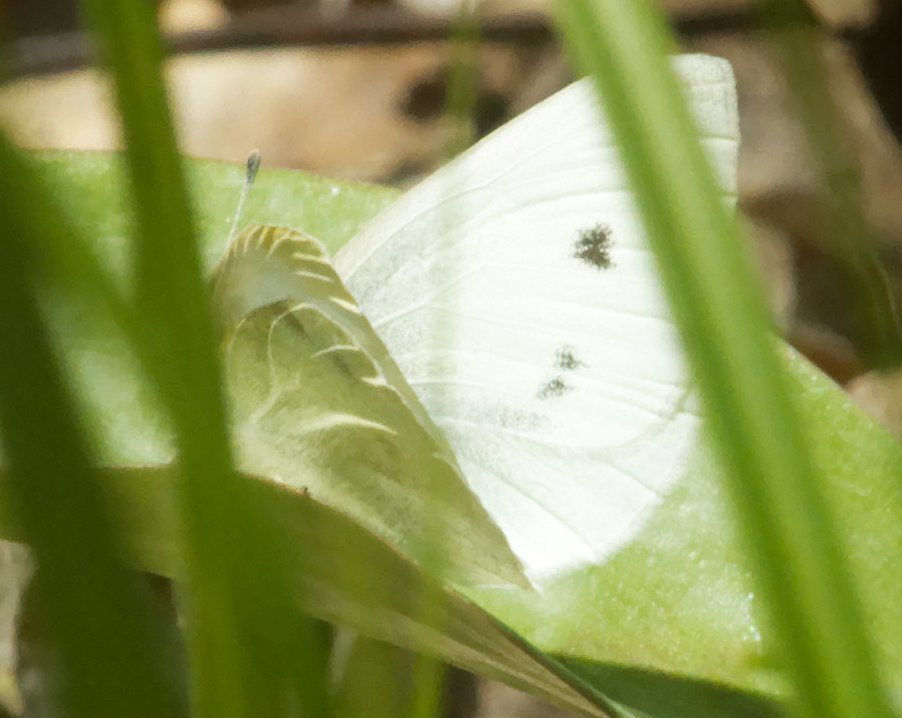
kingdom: Animalia
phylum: Arthropoda
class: Insecta
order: Lepidoptera
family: Pieridae
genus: Pieris
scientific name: Pieris rapae
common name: Cabbage White
